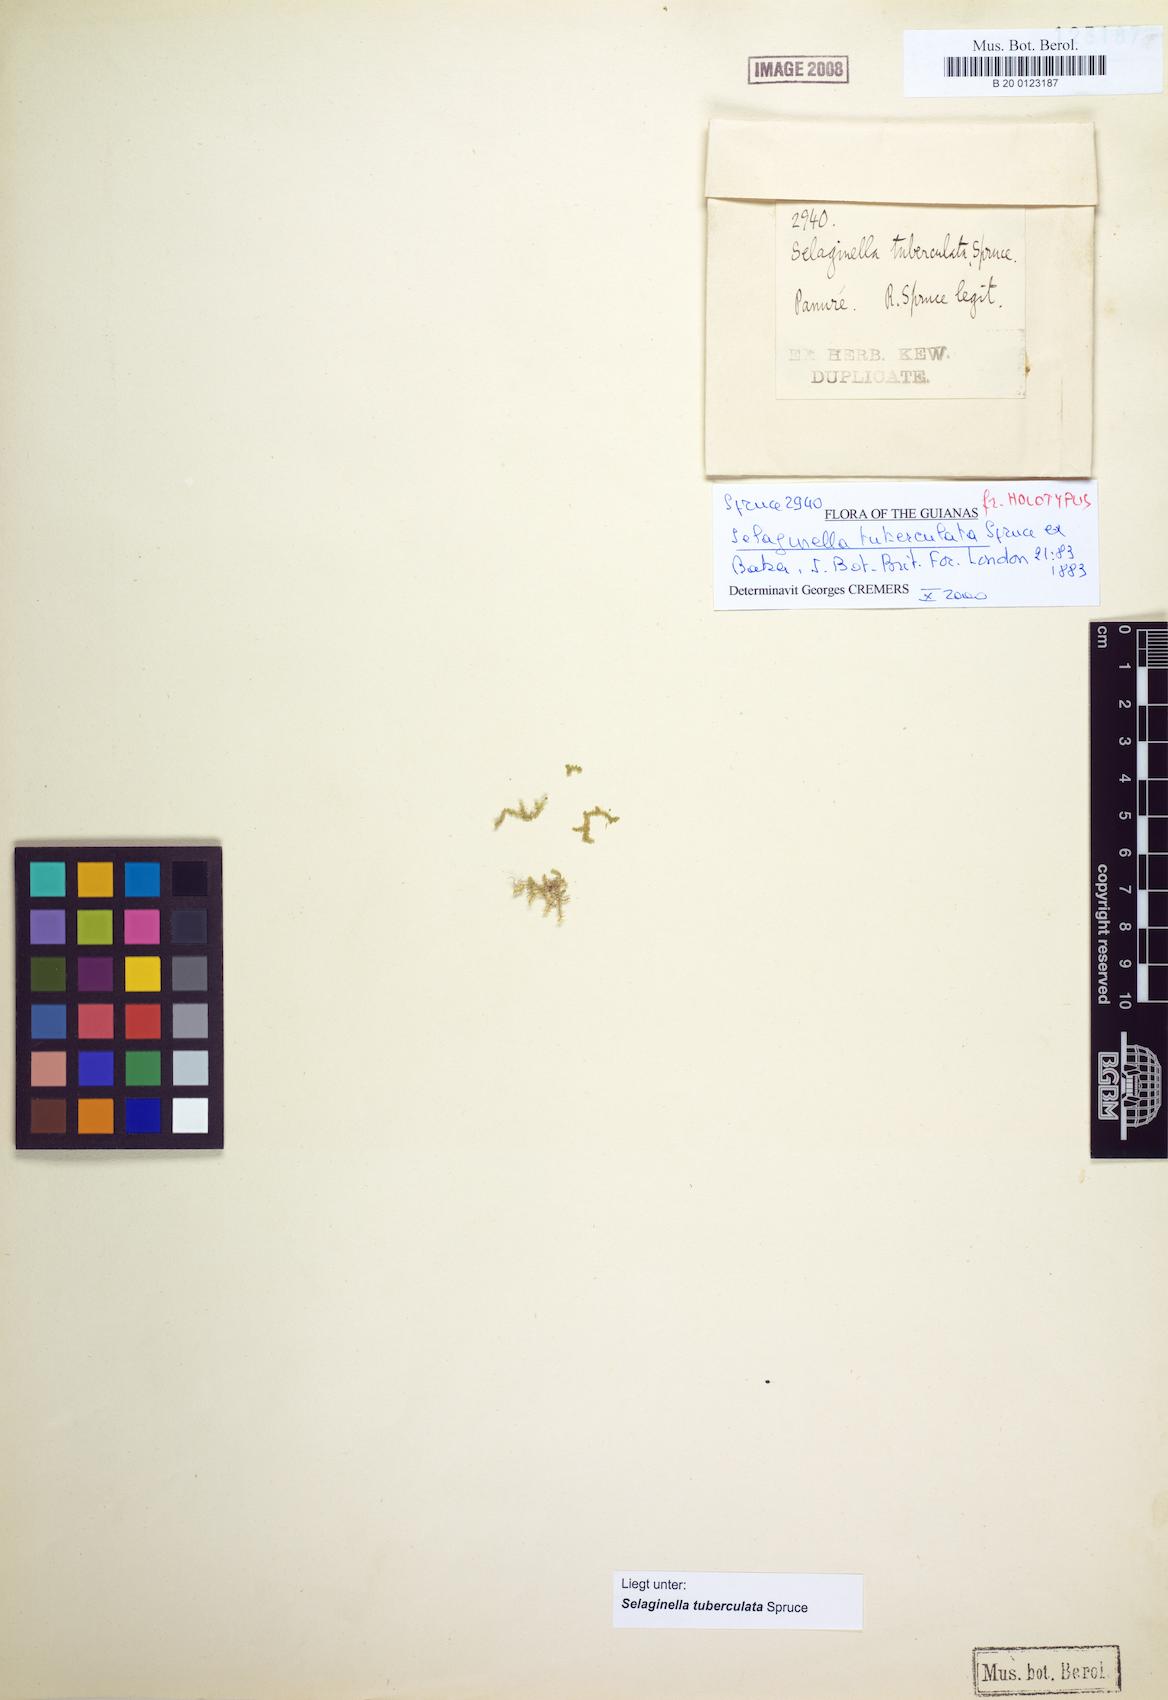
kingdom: Plantae
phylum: Tracheophyta
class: Lycopodiopsida
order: Selaginellales
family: Selaginellaceae
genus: Selaginella
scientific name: Selaginella tuberculata
